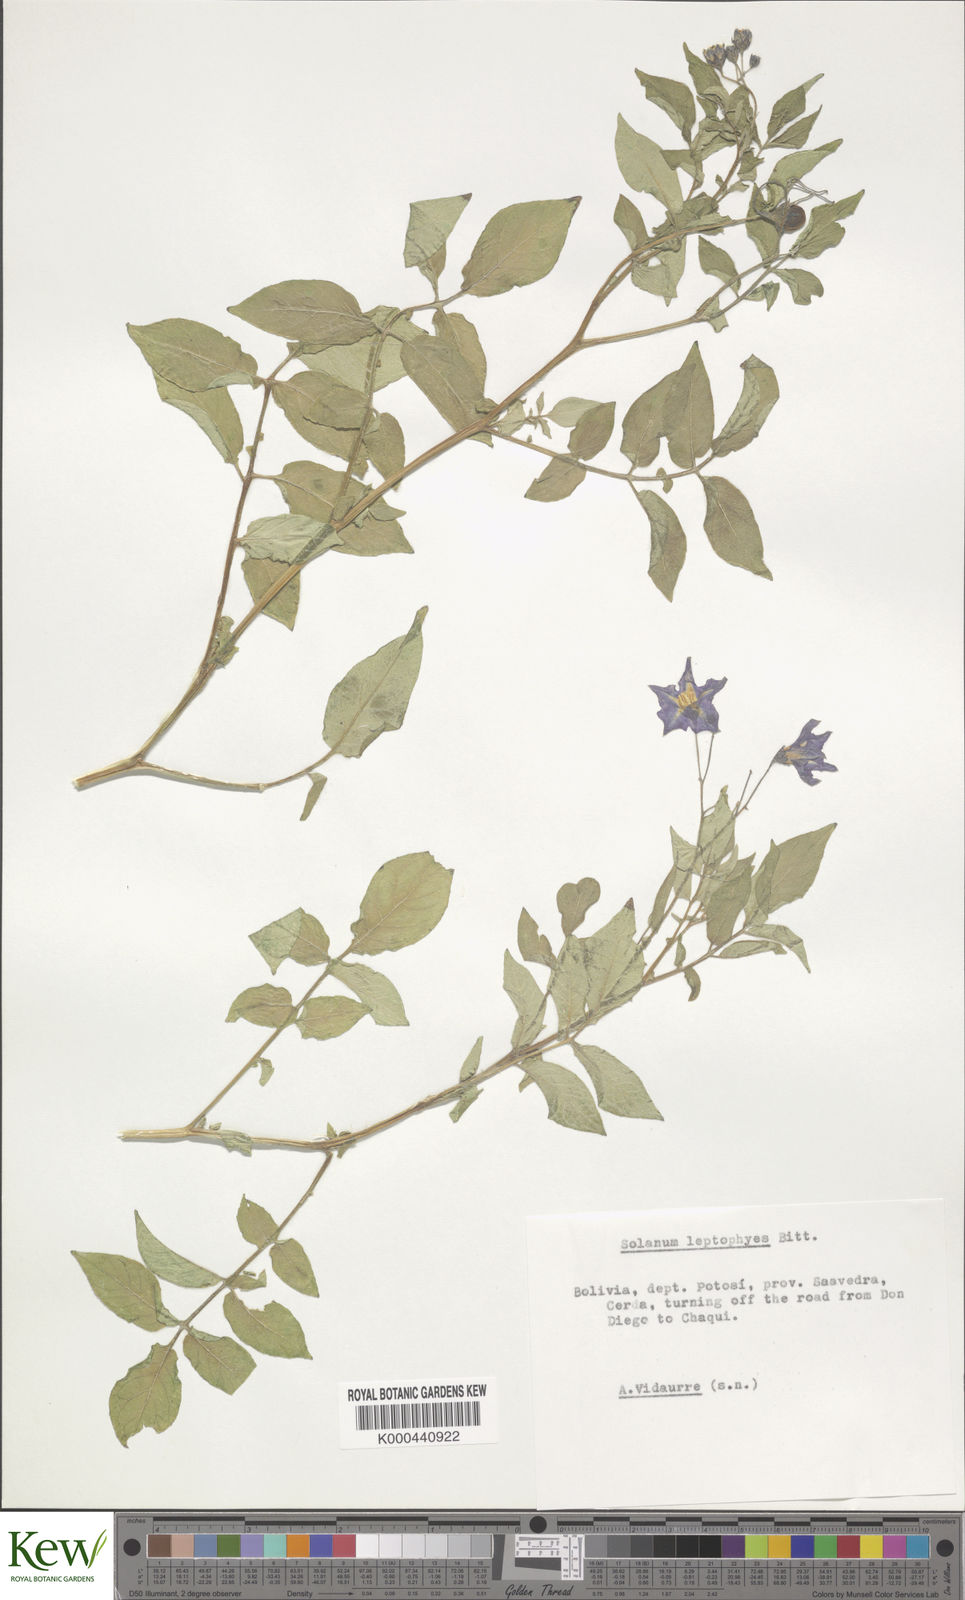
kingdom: Plantae
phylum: Tracheophyta
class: Magnoliopsida
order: Solanales
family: Solanaceae
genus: Solanum
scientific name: Solanum brevicaule
